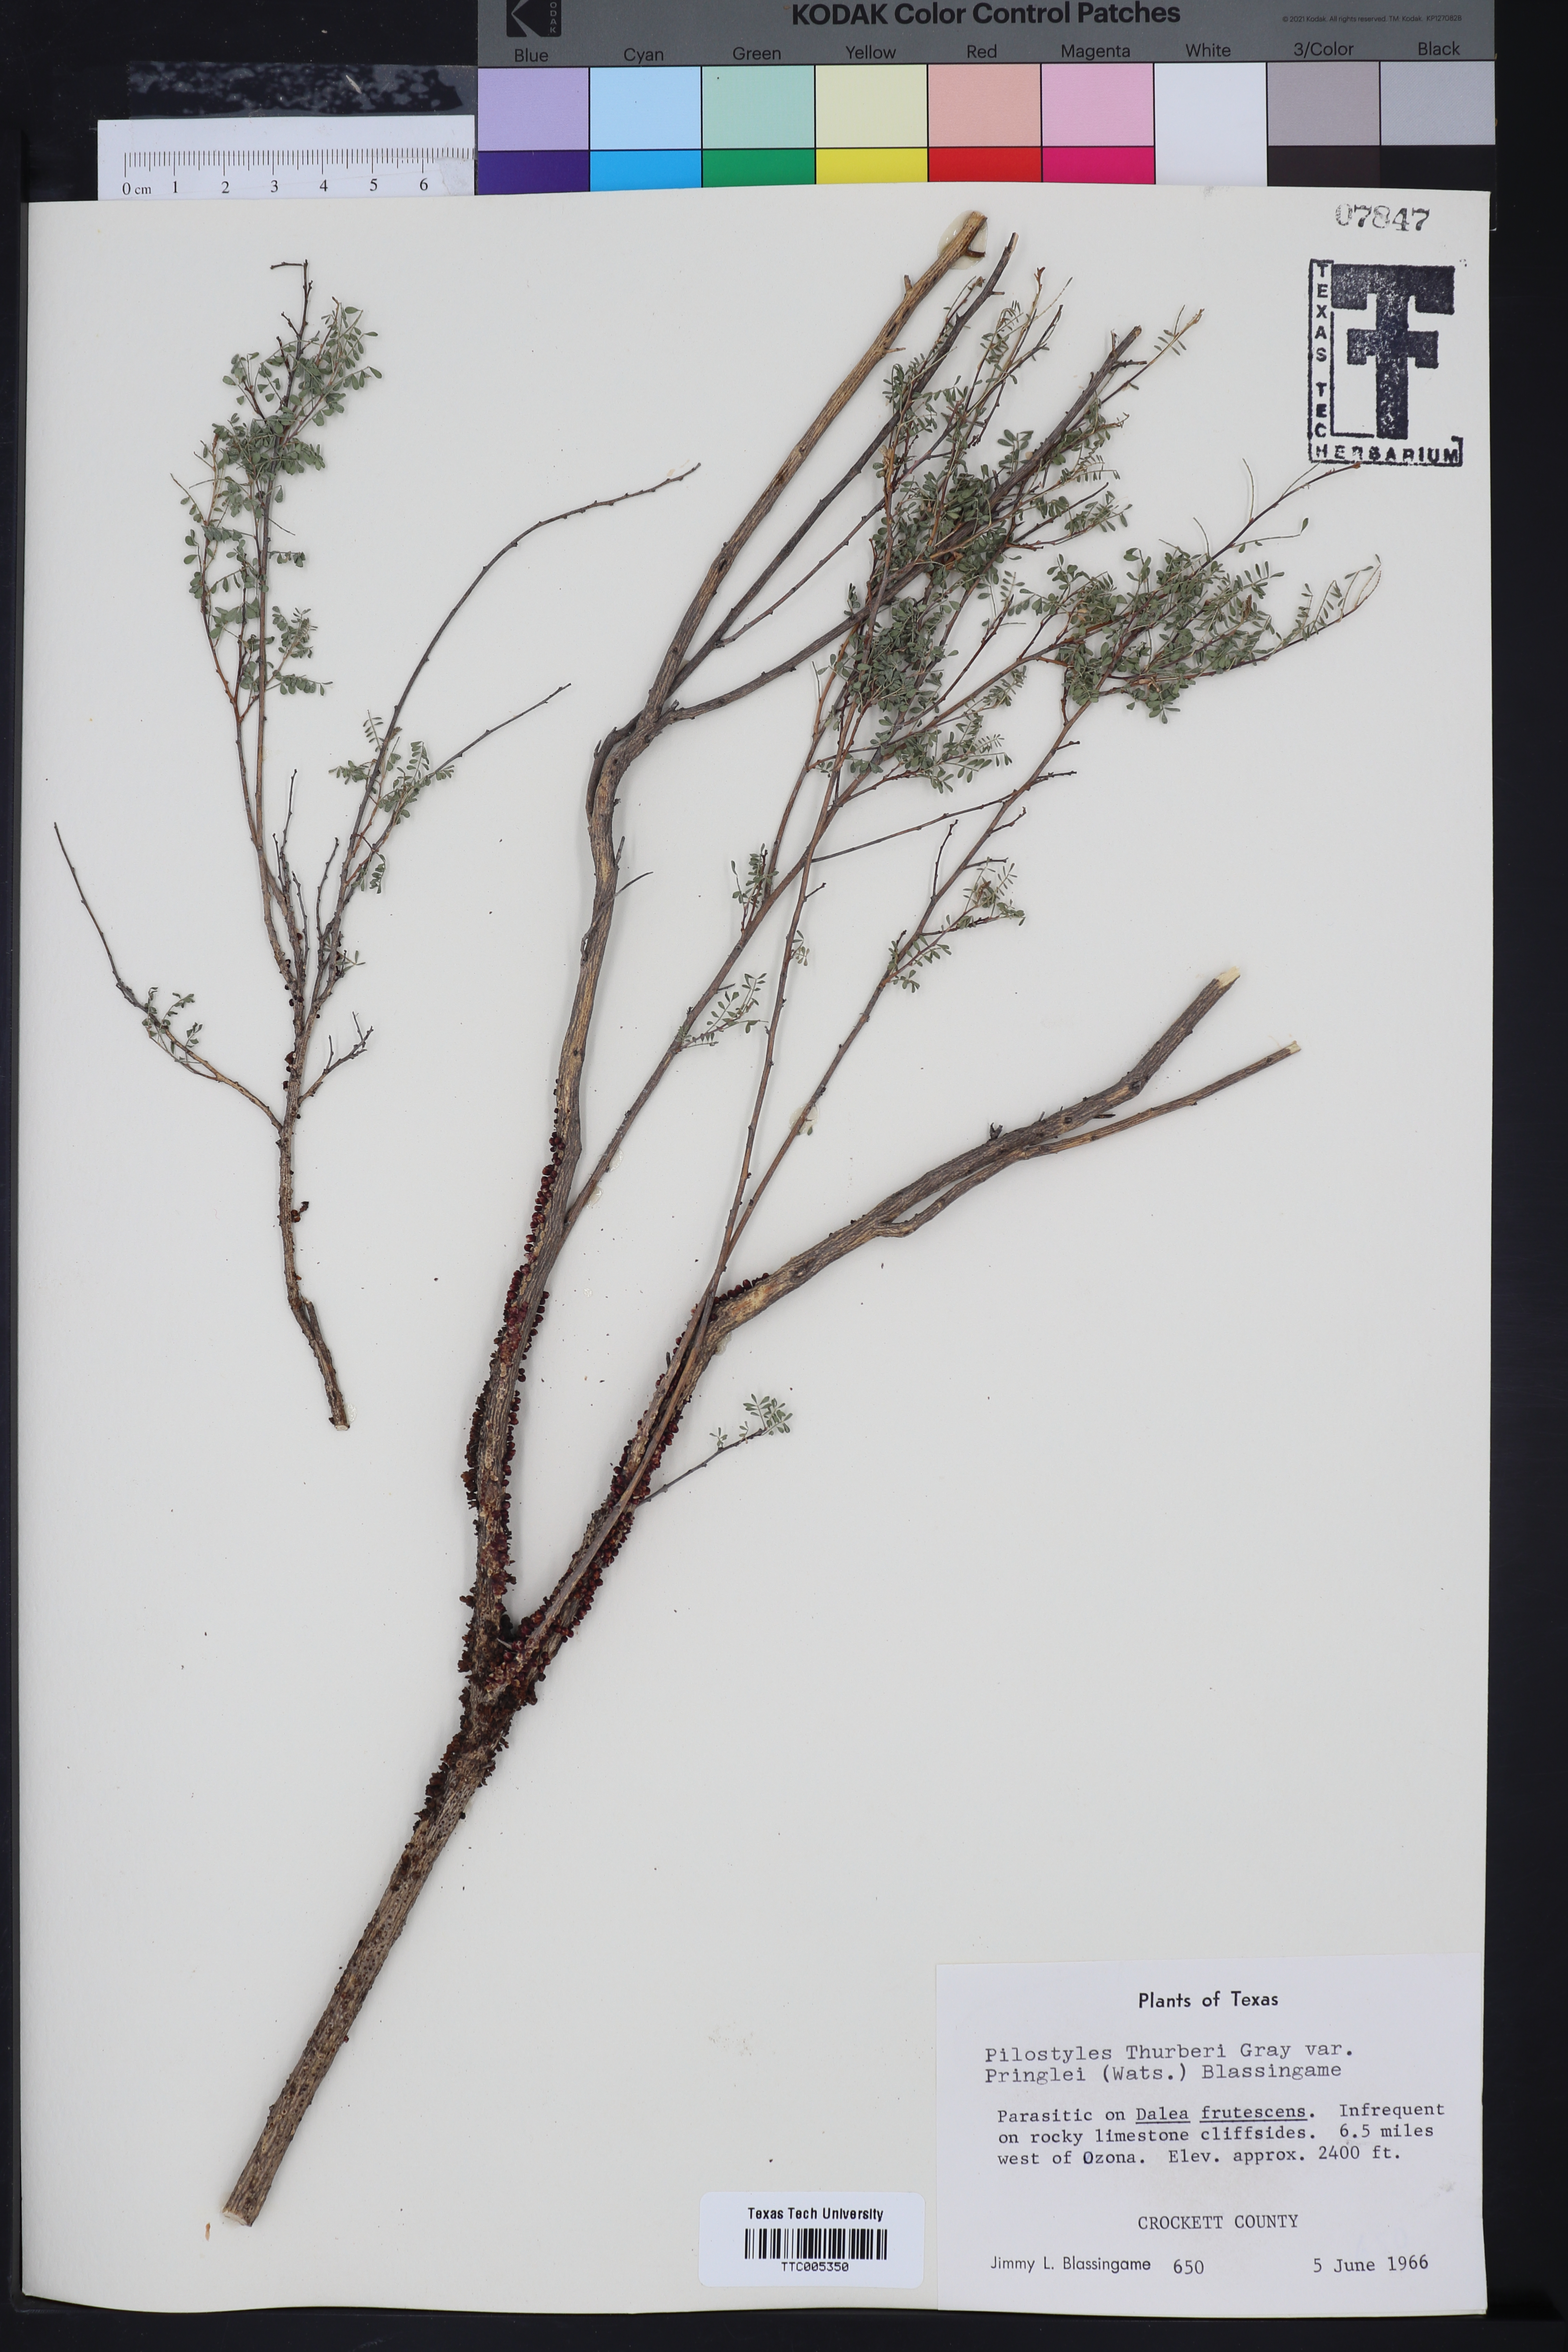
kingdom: Plantae
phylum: Tracheophyta
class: Magnoliopsida
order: Cucurbitales
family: Apodanthaceae
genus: Pilostyles
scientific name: Pilostyles thurberi
